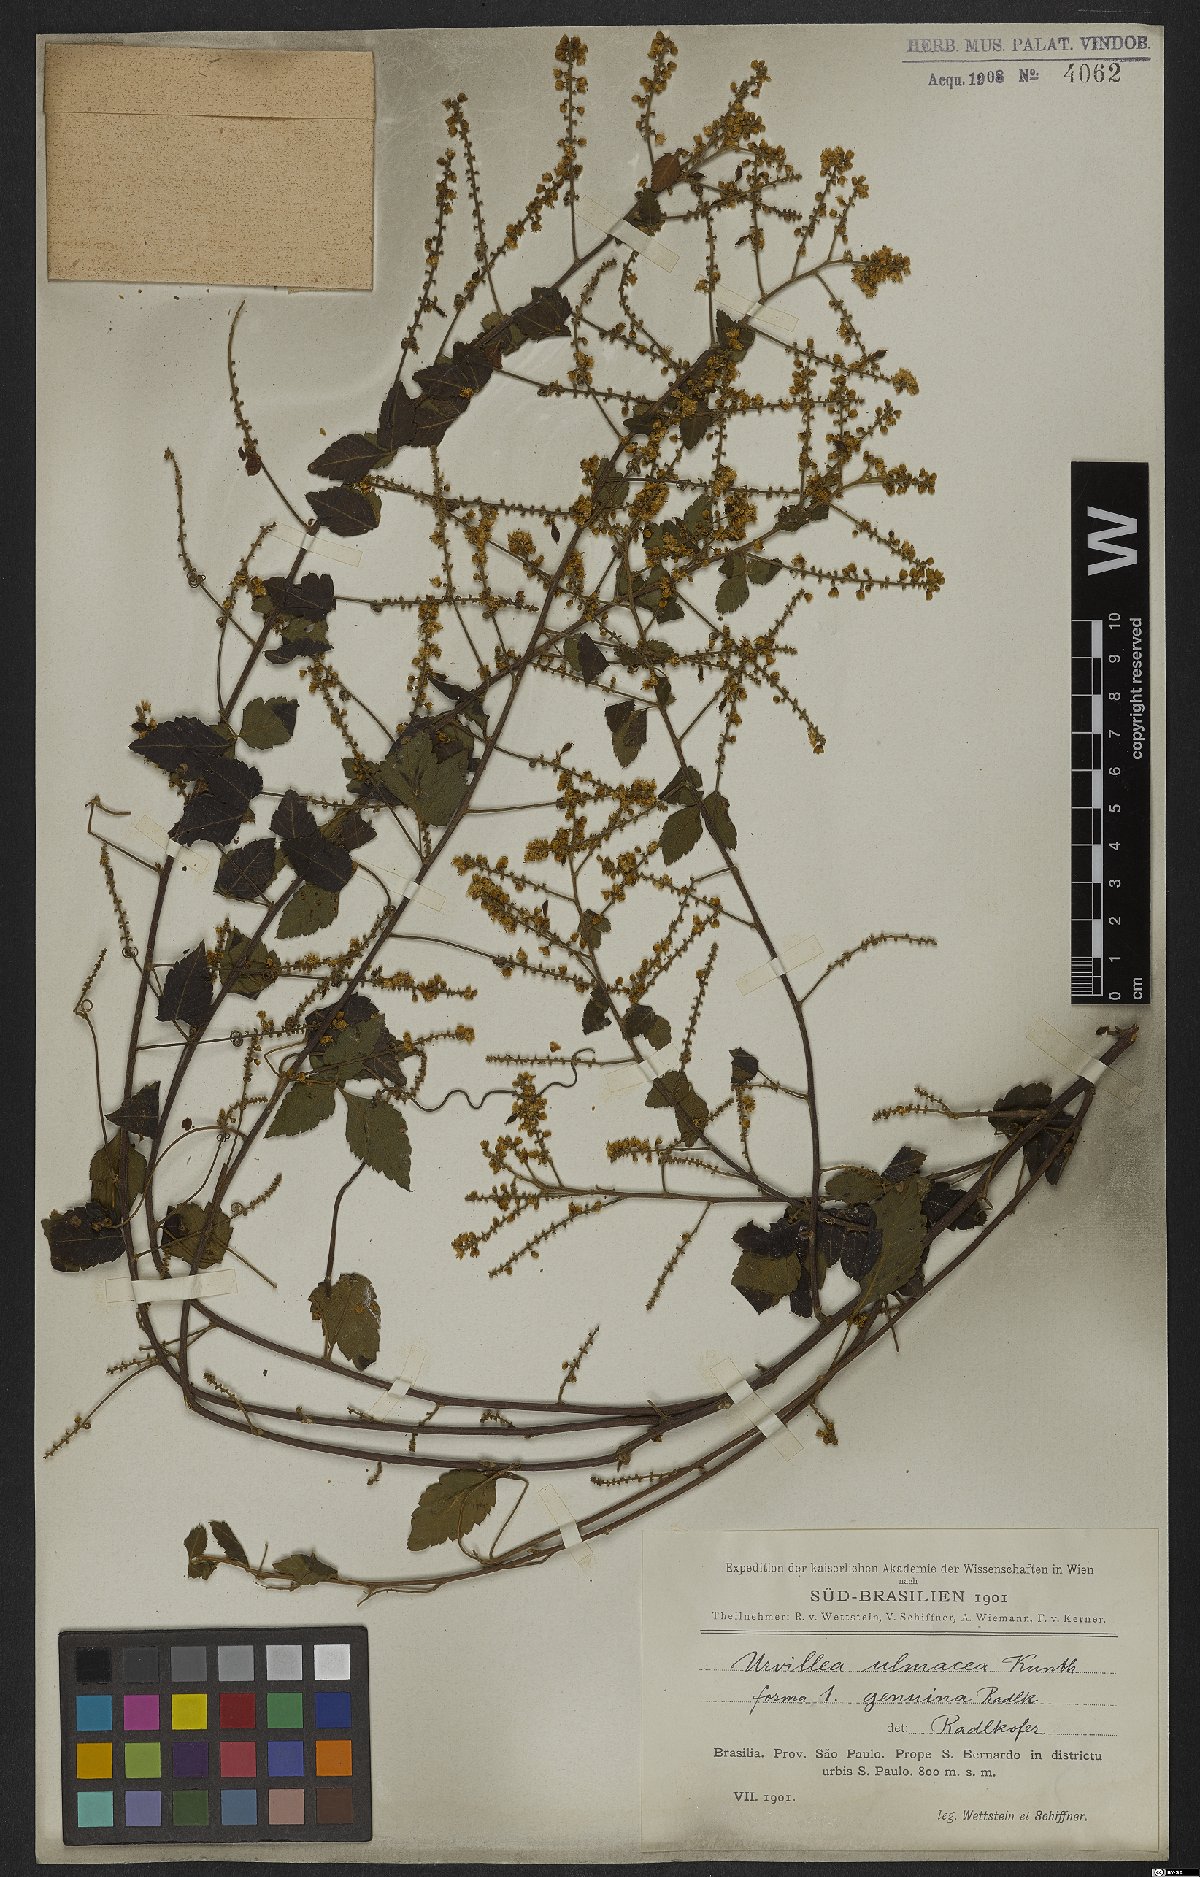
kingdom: Plantae
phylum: Tracheophyta
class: Magnoliopsida
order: Sapindales
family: Sapindaceae
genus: Urvillea
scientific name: Urvillea ulmacea
